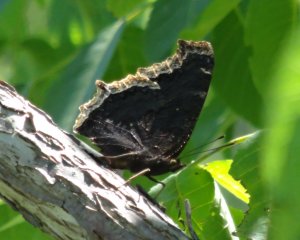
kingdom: Animalia
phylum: Arthropoda
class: Insecta
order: Lepidoptera
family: Nymphalidae
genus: Nymphalis
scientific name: Nymphalis antiopa
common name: Mourning Cloak
